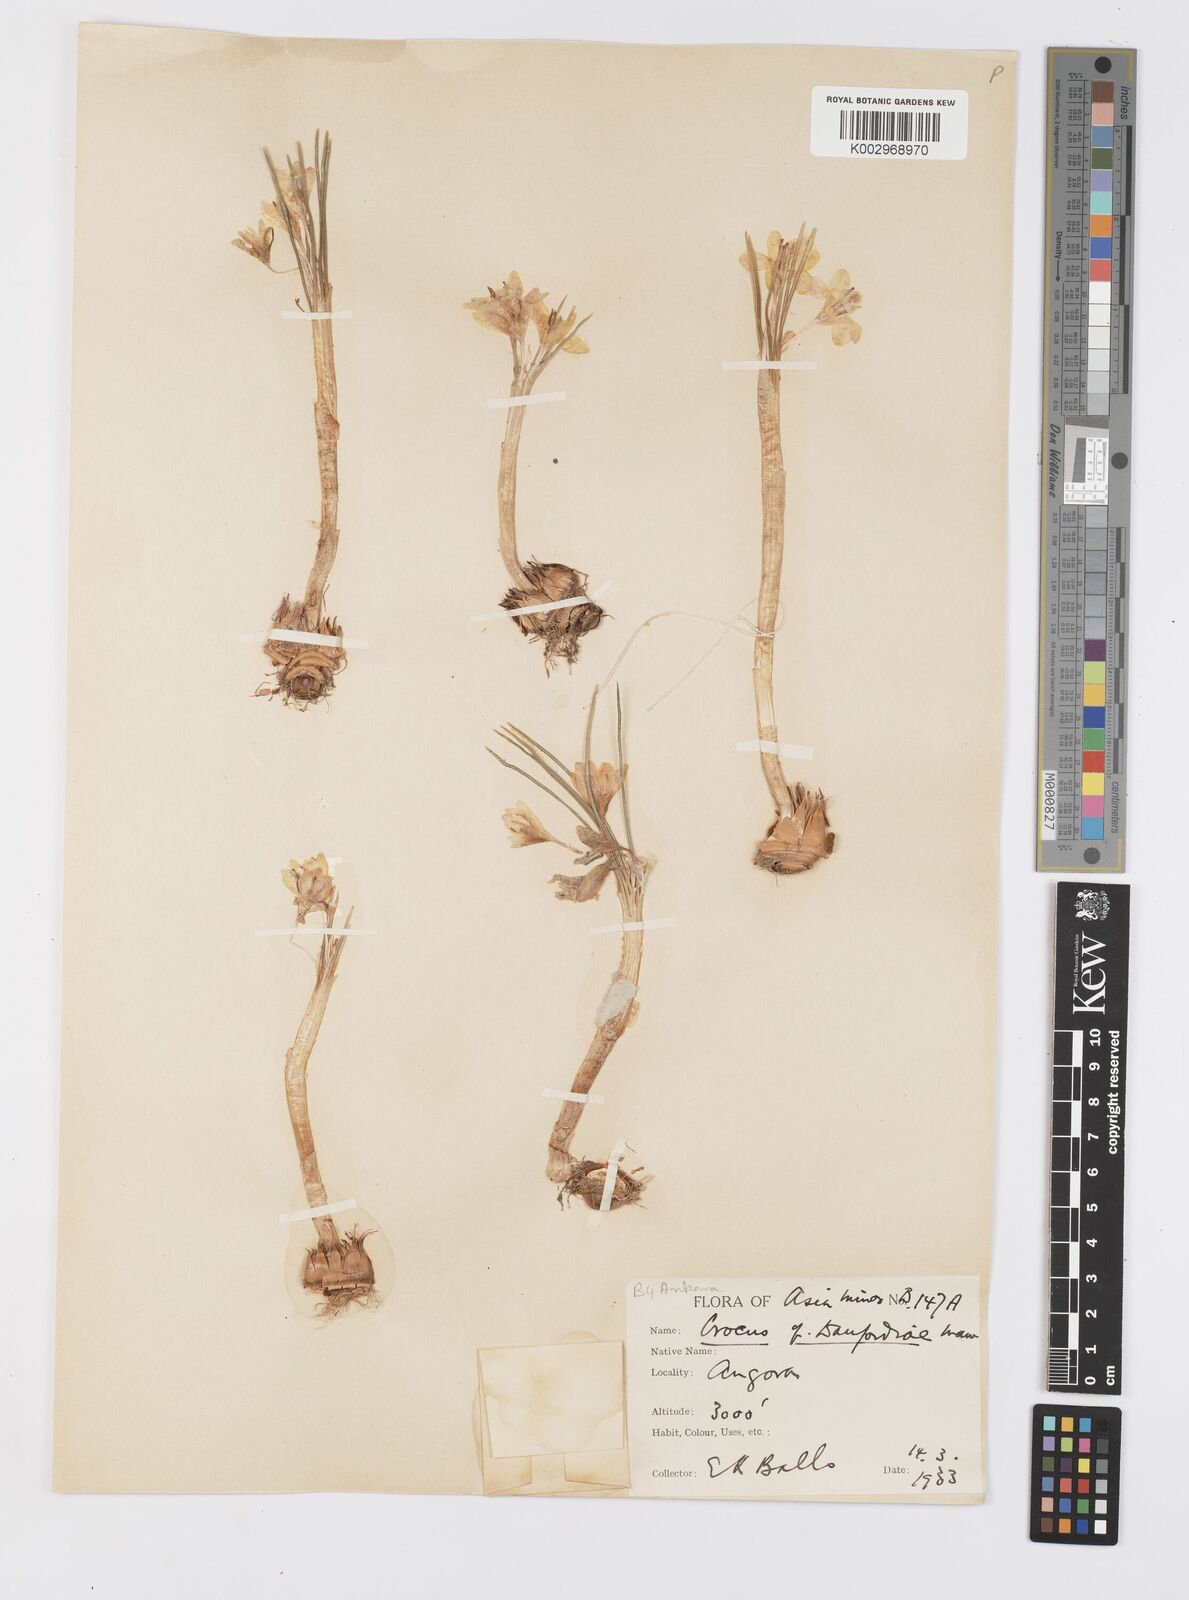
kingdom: Plantae
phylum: Tracheophyta
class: Liliopsida
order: Asparagales
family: Iridaceae
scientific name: Iridaceae
